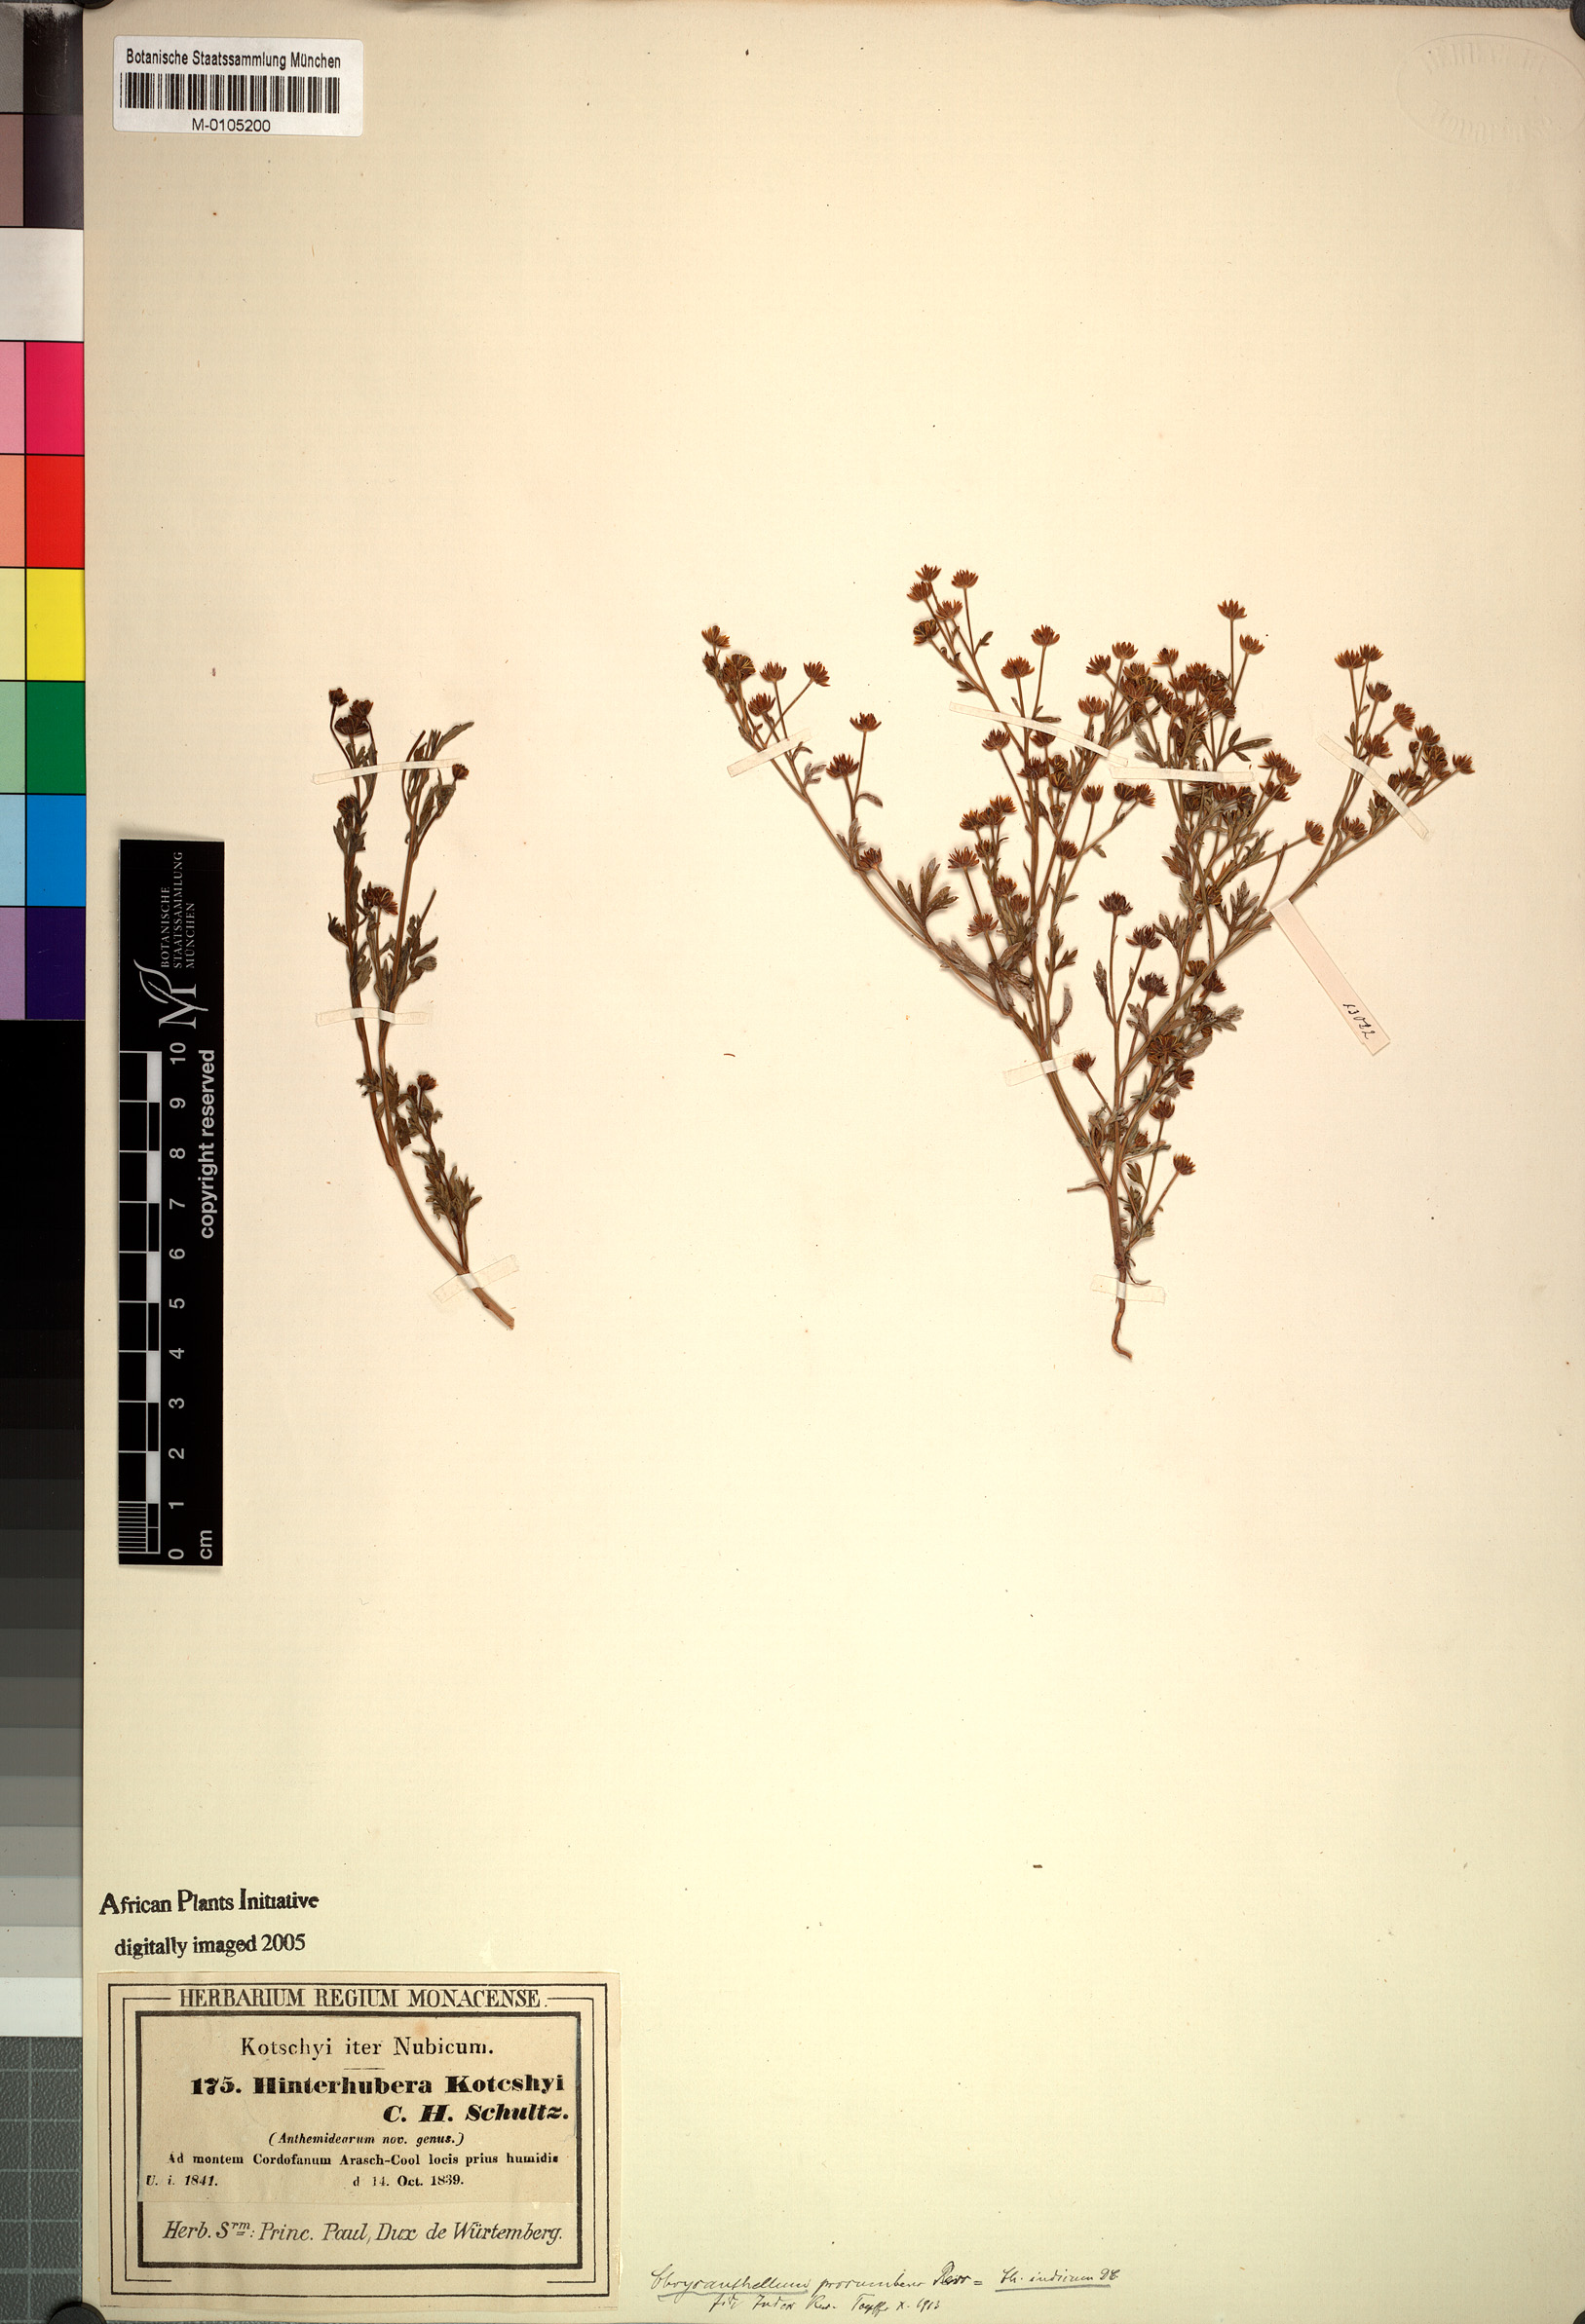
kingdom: Plantae
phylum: Tracheophyta
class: Magnoliopsida
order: Asterales
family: Asteraceae
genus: Chrysanthellum
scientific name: Chrysanthellum americanum
